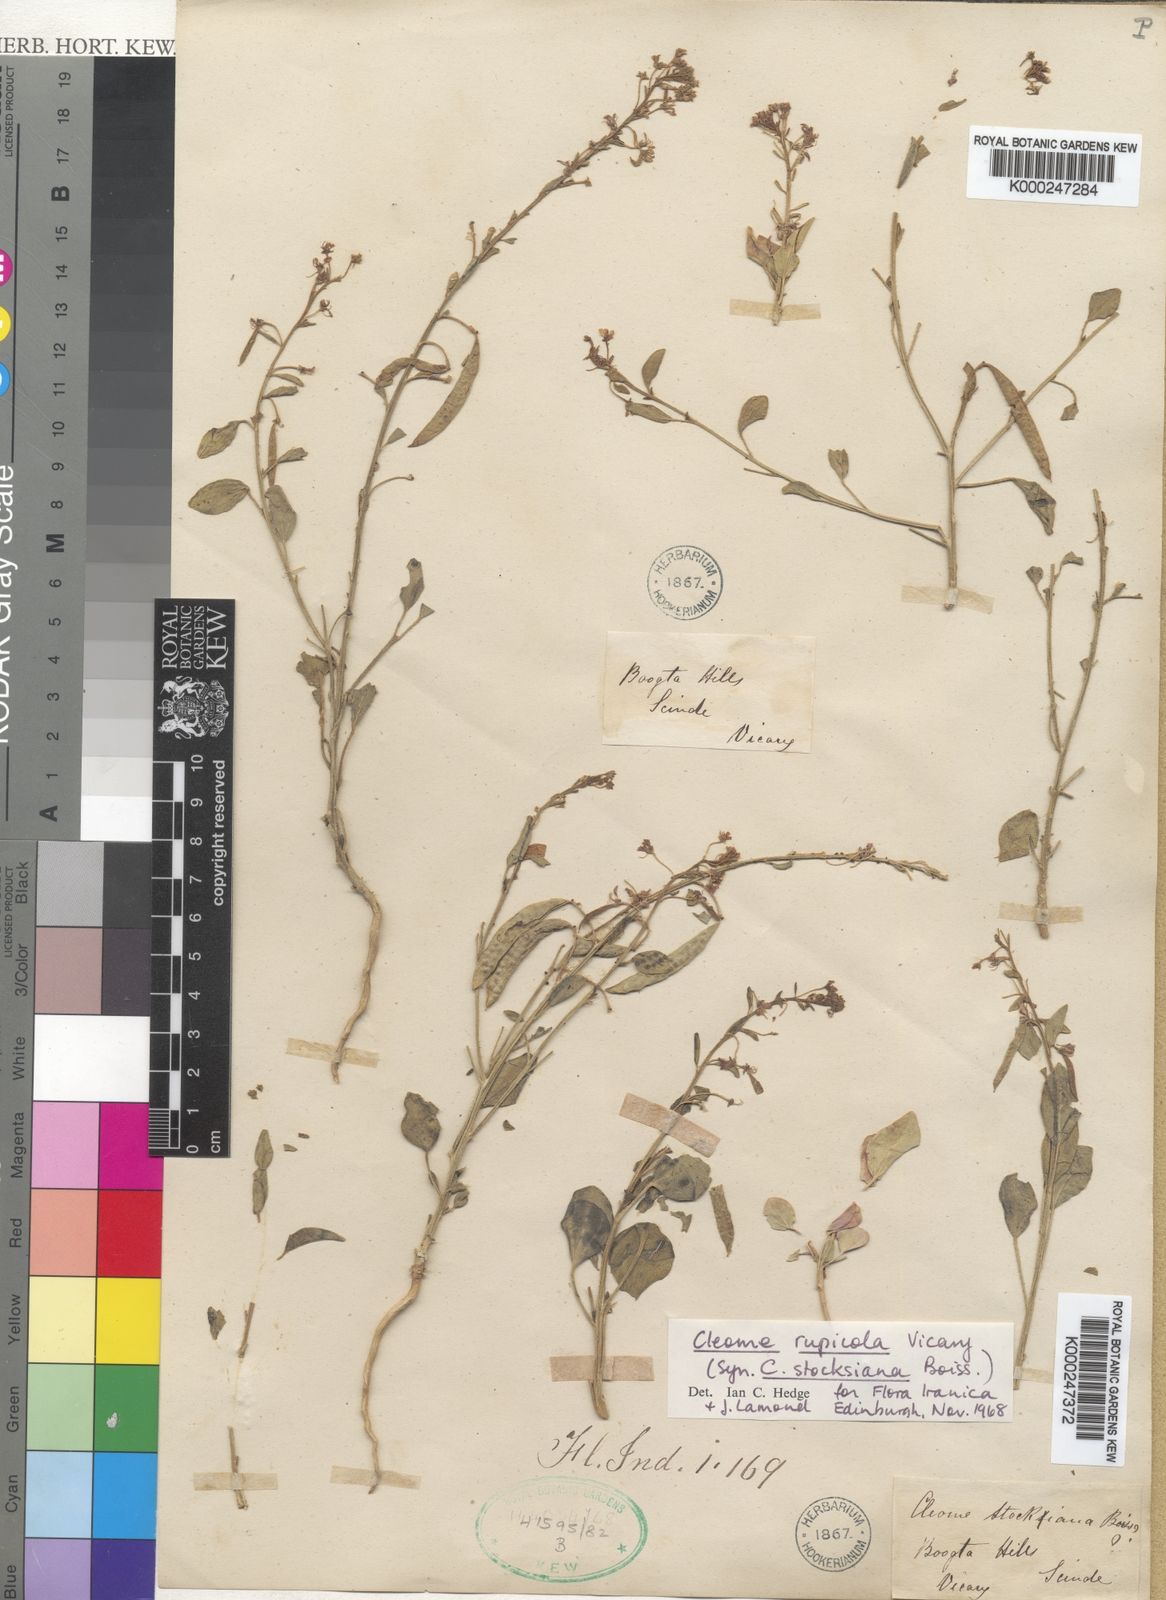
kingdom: Plantae
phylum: Tracheophyta
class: Magnoliopsida
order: Brassicales
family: Cleomaceae
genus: Cleome
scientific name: Cleome rupicola
